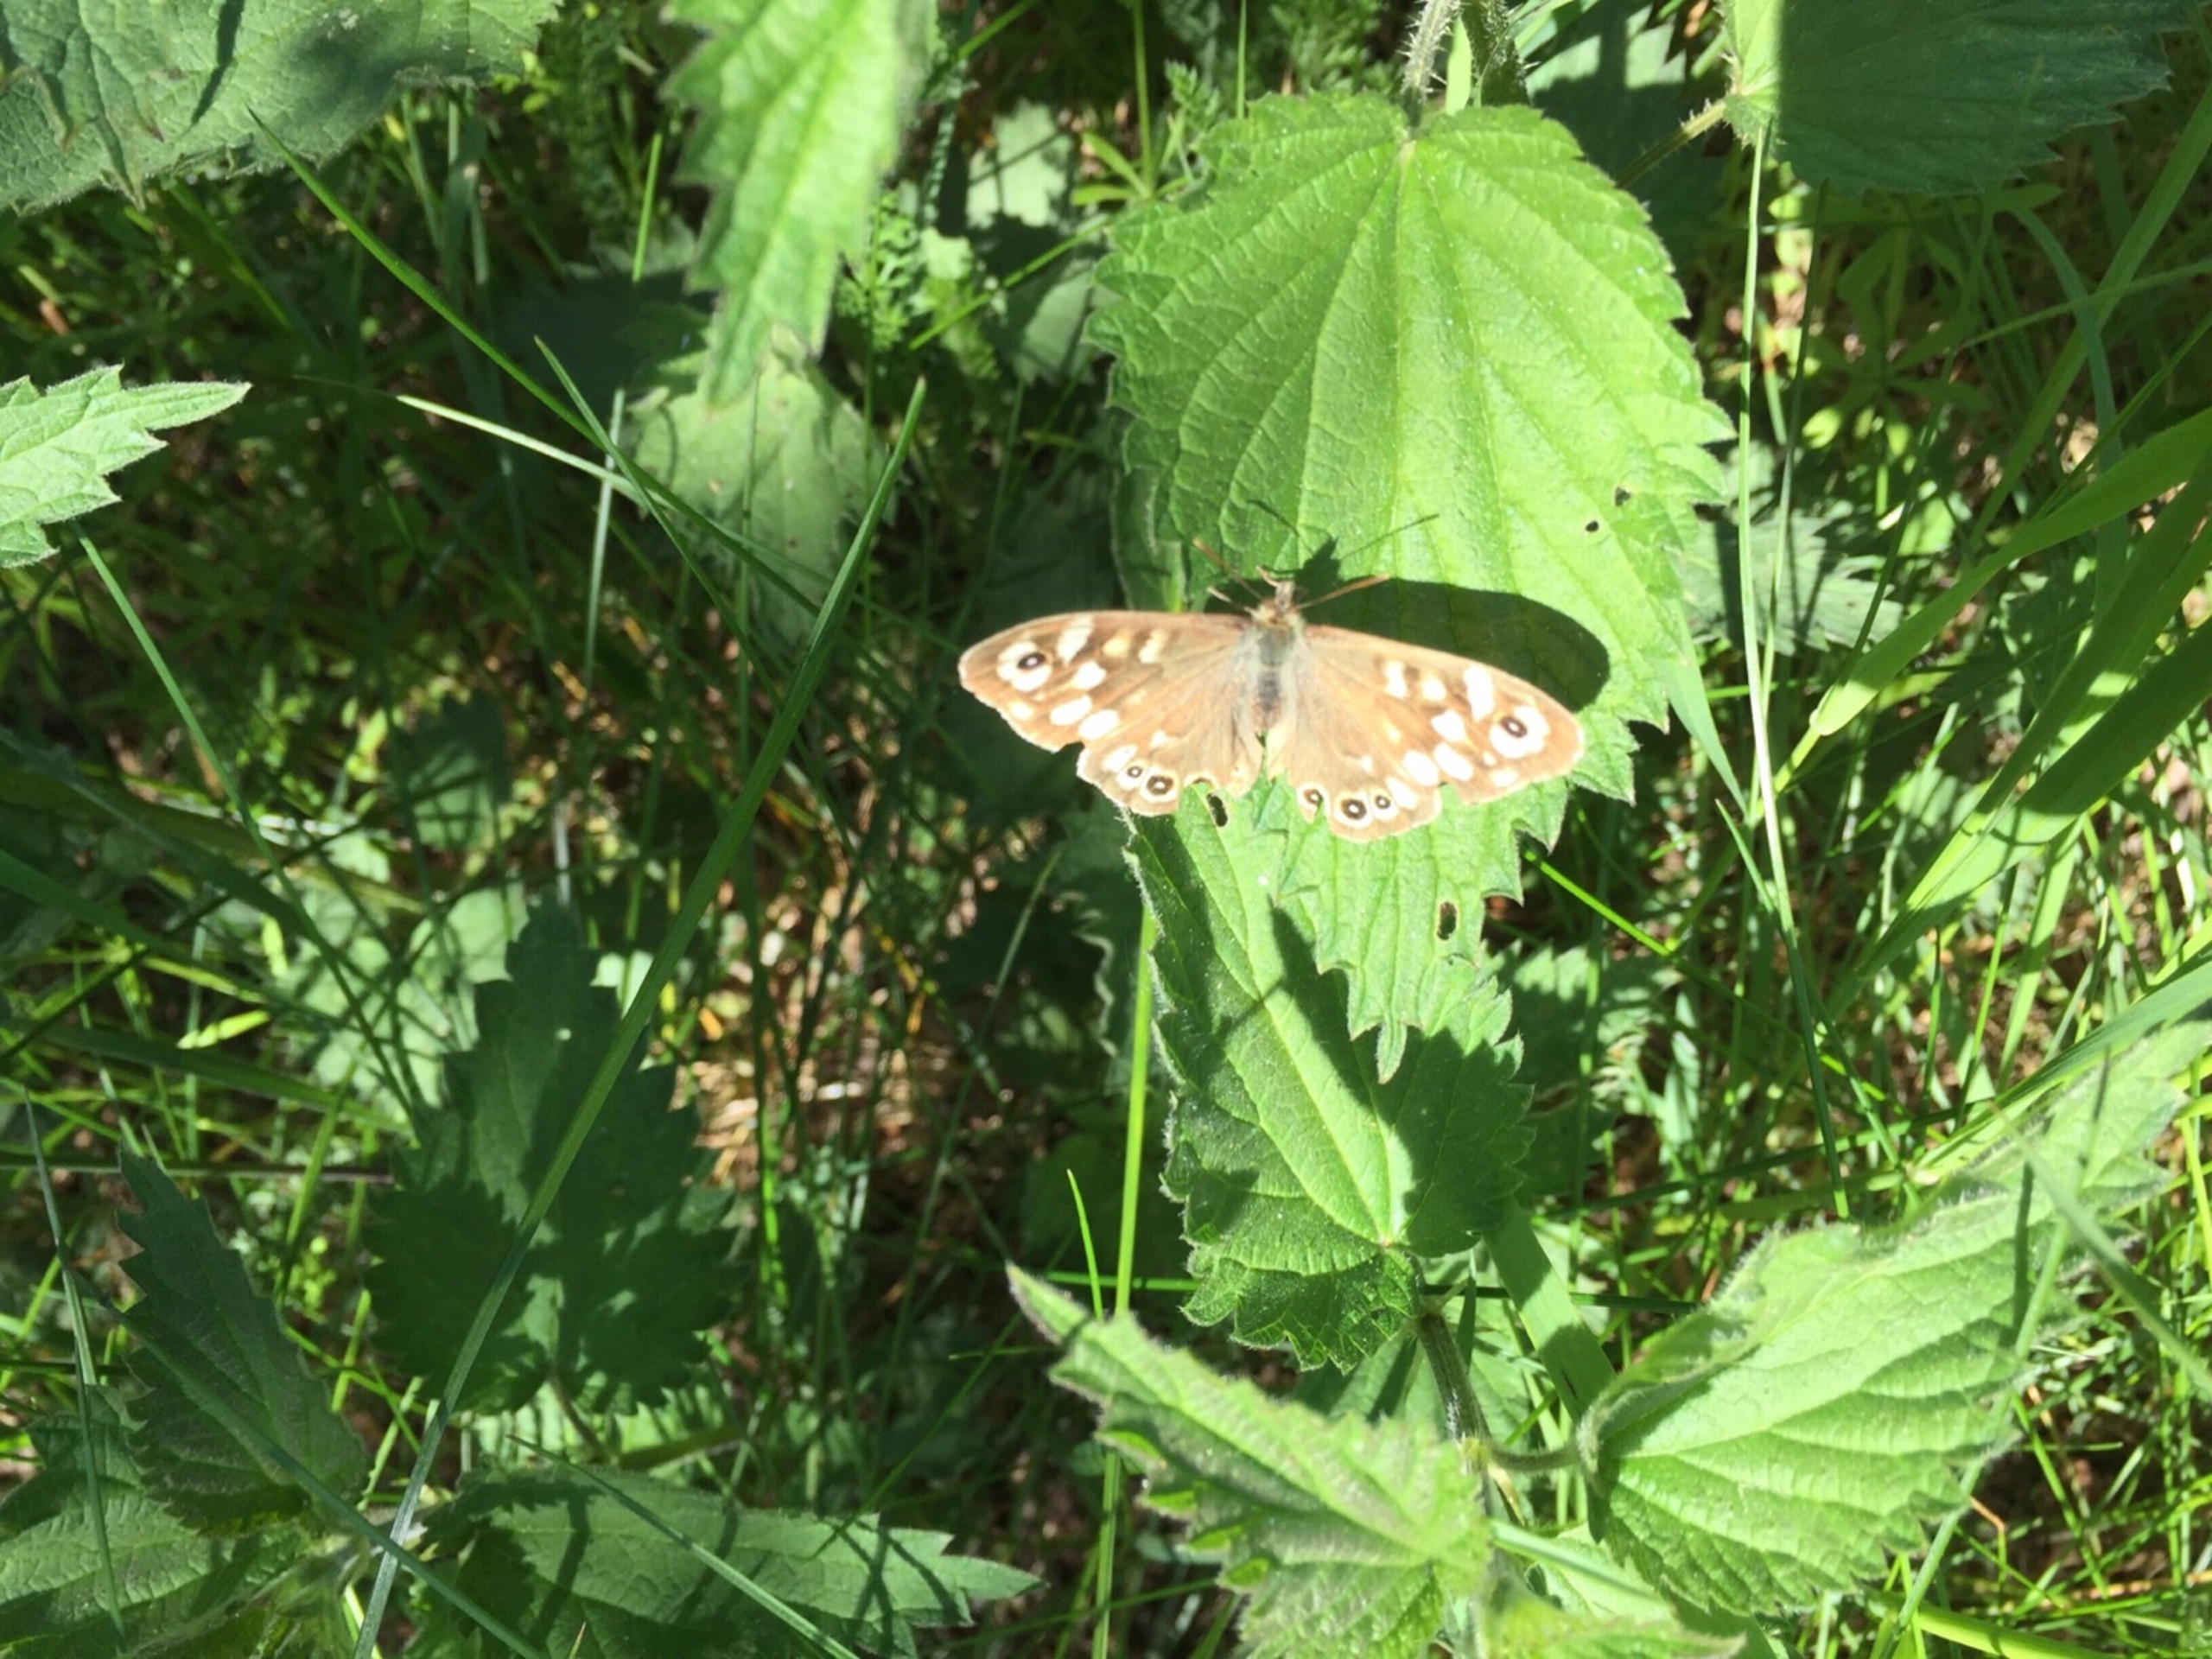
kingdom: Animalia
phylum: Arthropoda
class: Insecta
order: Lepidoptera
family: Nymphalidae
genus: Pararge
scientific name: Pararge aegeria
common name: Skovrandøje
